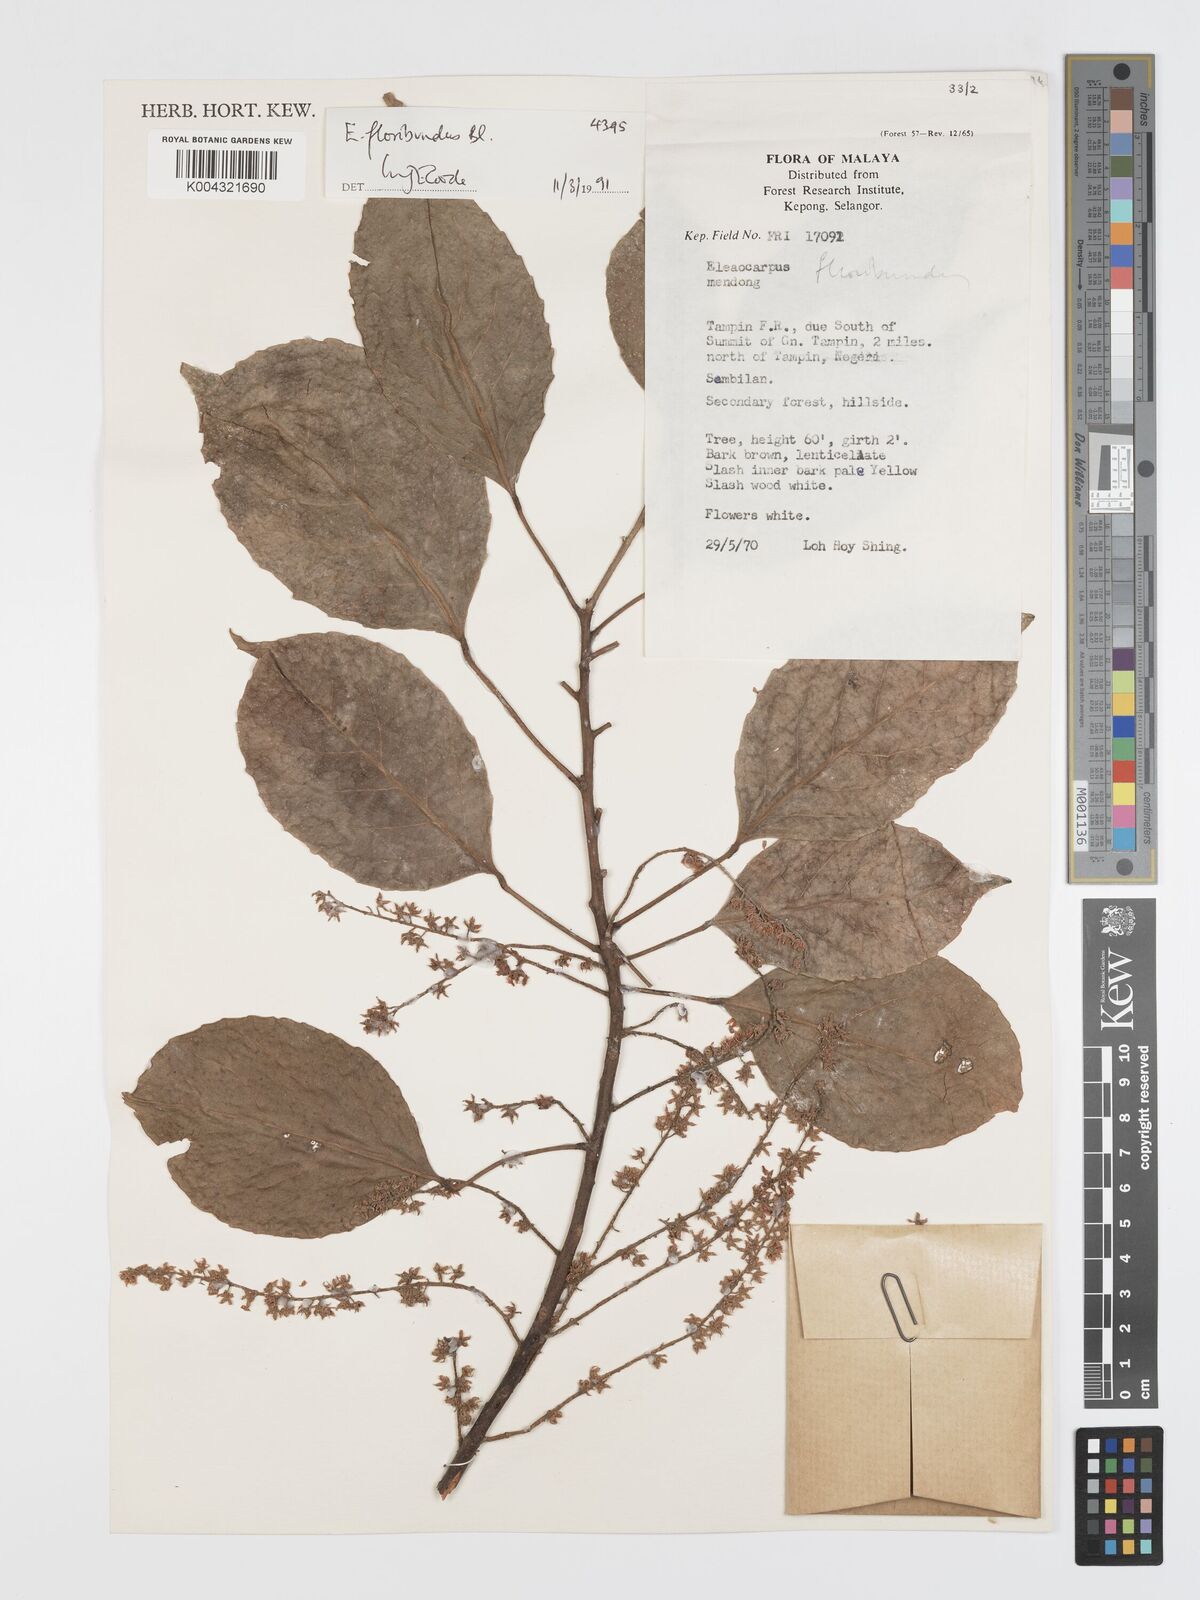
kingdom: Plantae
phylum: Tracheophyta
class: Magnoliopsida
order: Oxalidales
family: Elaeocarpaceae
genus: Elaeocarpus
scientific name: Elaeocarpus floribundus
